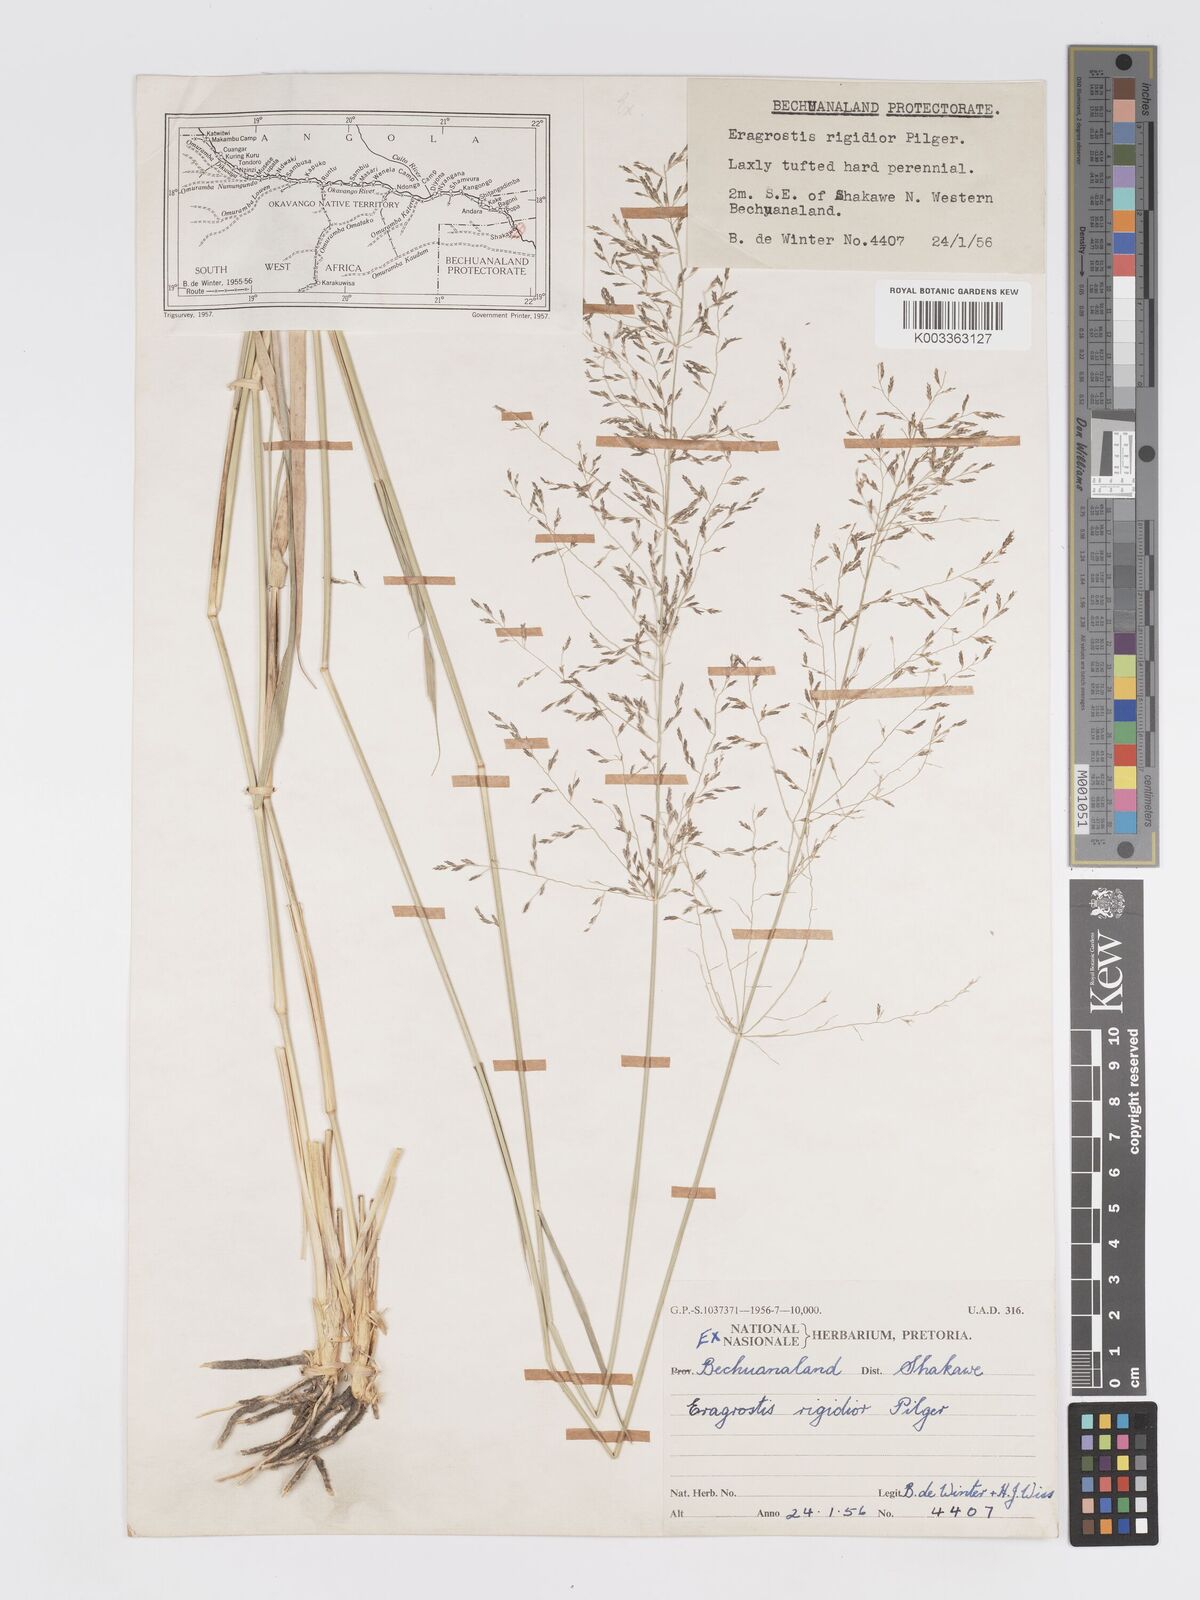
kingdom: Plantae
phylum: Tracheophyta
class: Liliopsida
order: Poales
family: Poaceae
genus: Eragrostis
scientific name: Eragrostis cylindriflora
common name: Cylinderflower lovegrass
